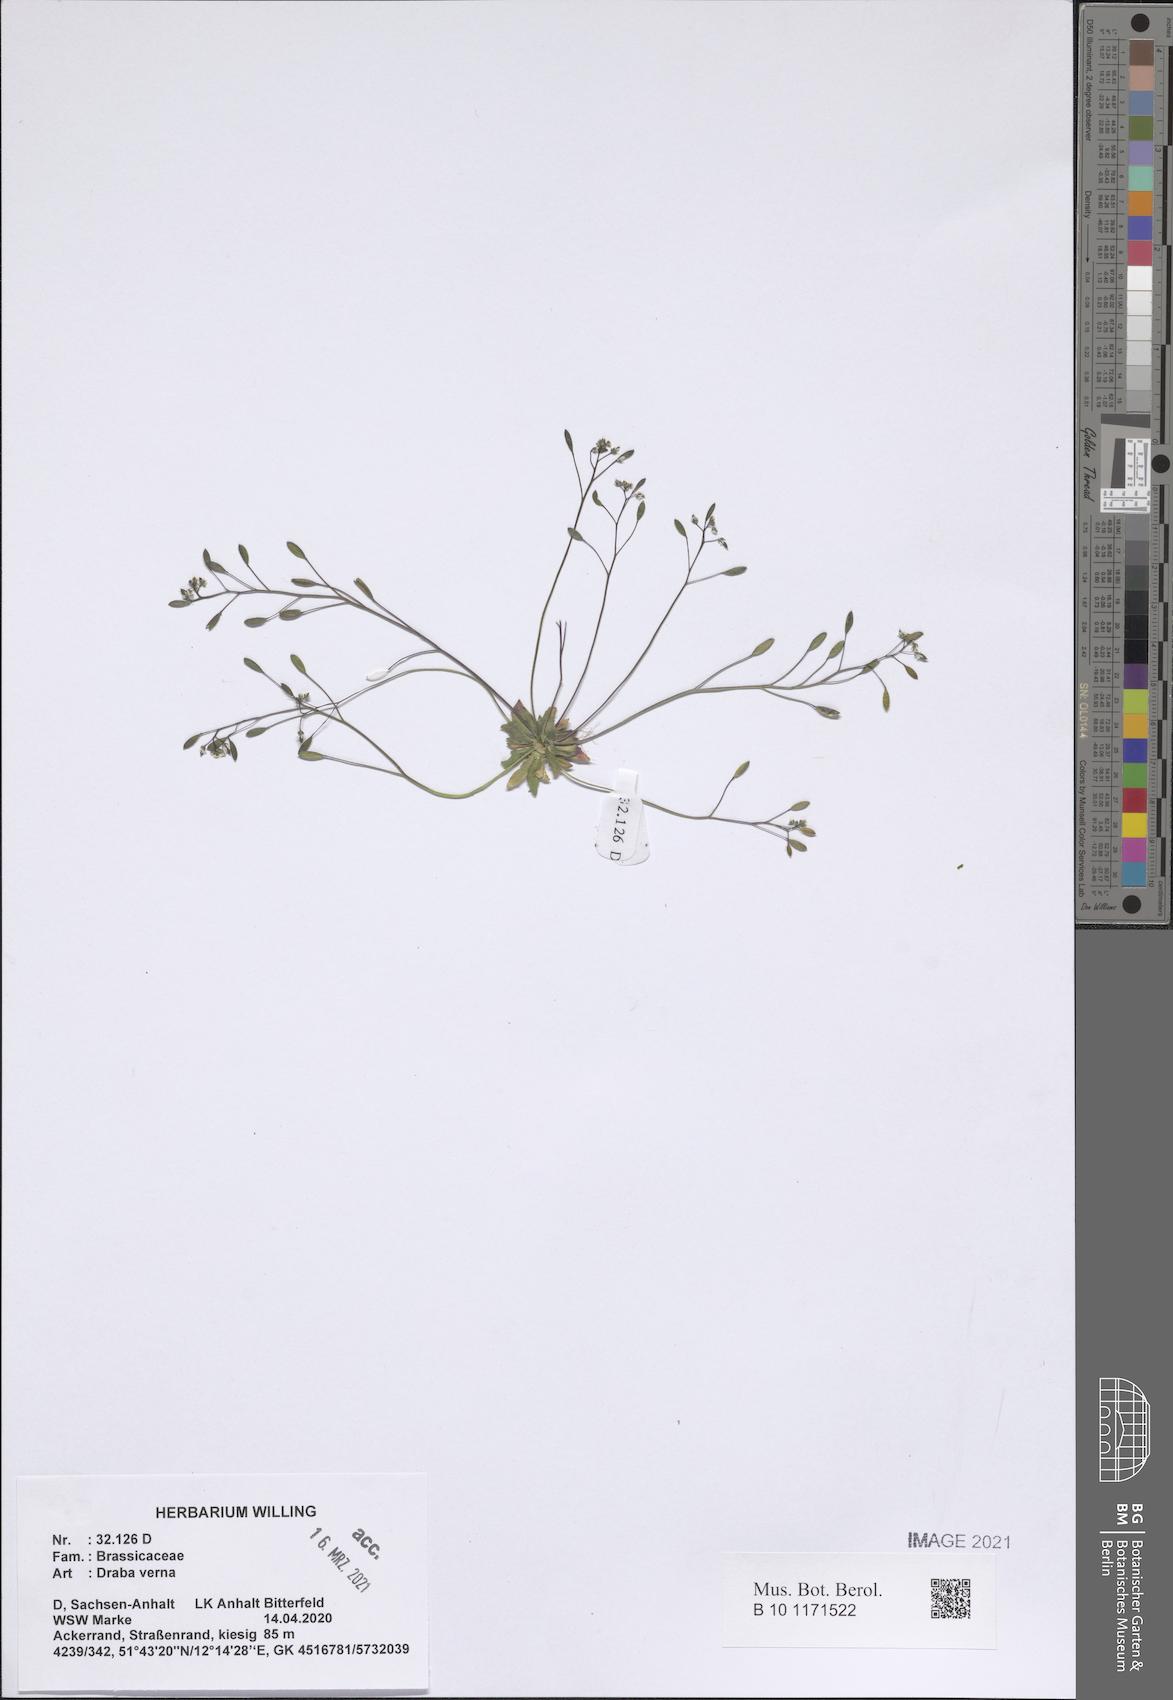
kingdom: Plantae
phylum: Tracheophyta
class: Magnoliopsida
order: Brassicales
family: Brassicaceae
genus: Draba
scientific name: Draba verna
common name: Spring draba
